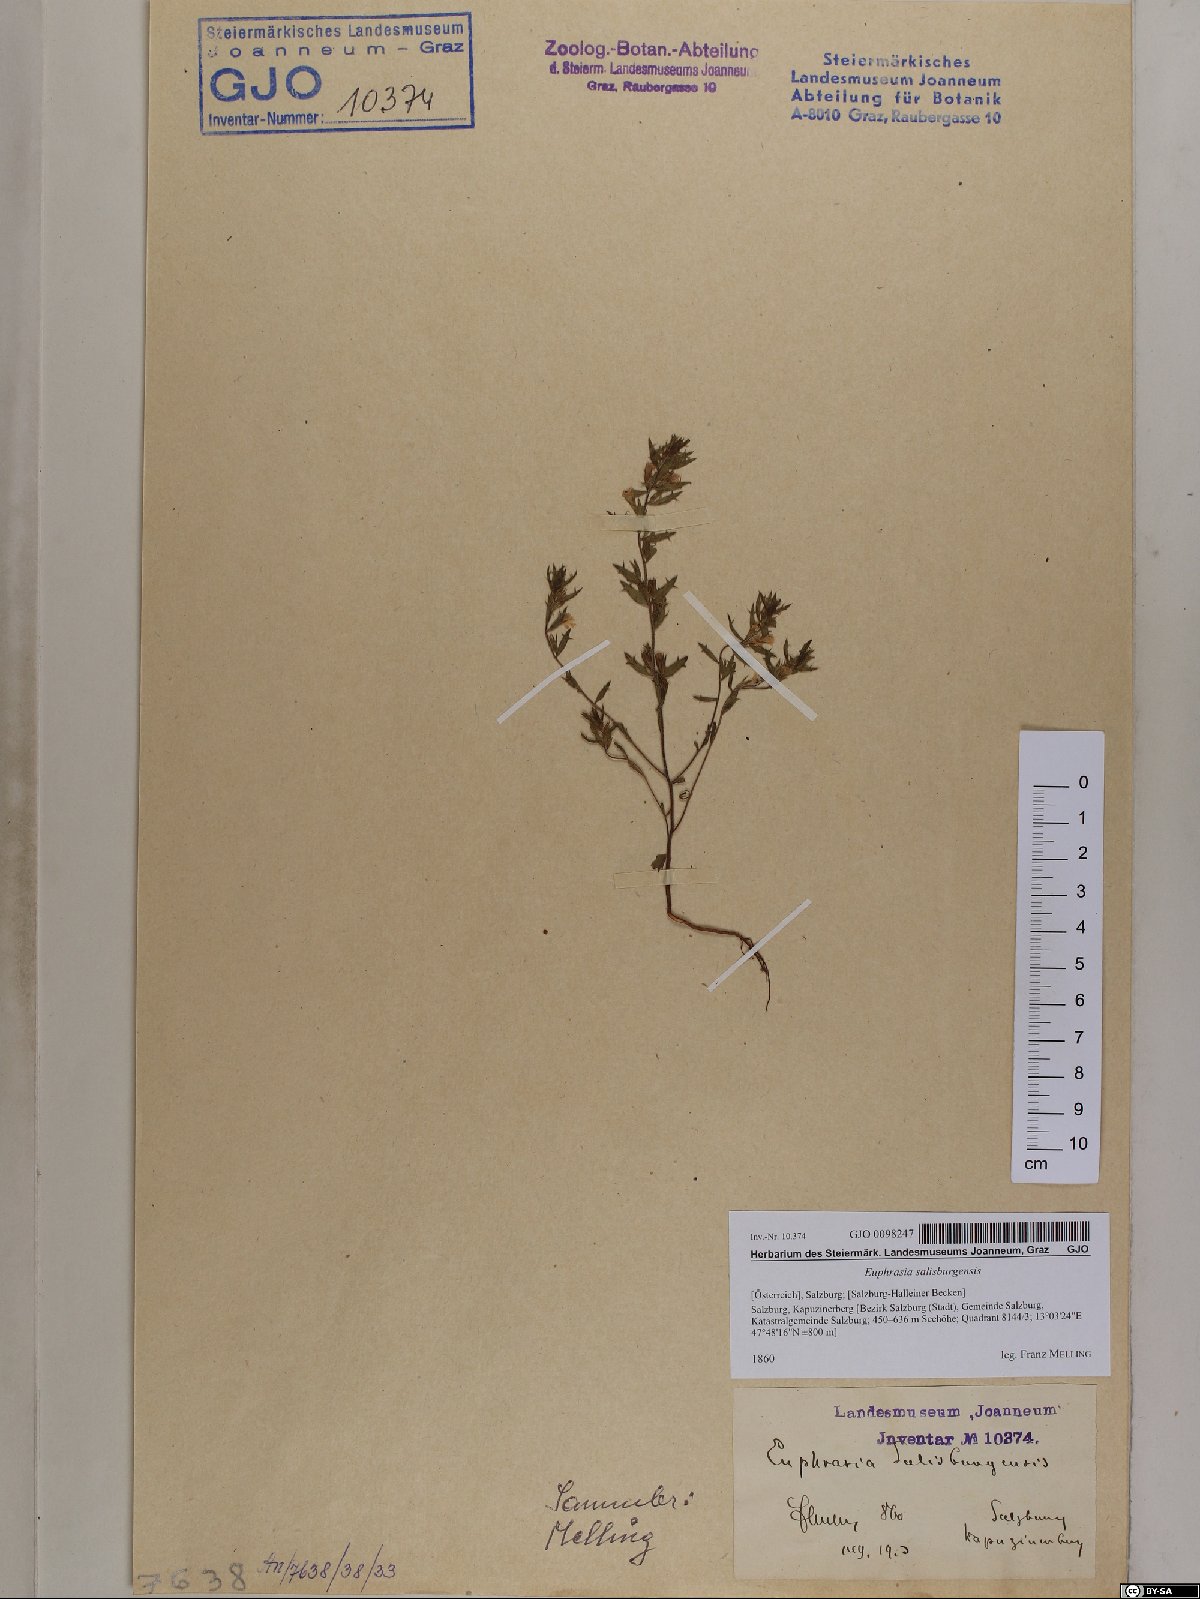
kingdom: Plantae
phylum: Tracheophyta
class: Magnoliopsida
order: Lamiales
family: Orobanchaceae
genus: Euphrasia
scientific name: Euphrasia salisburgensis
